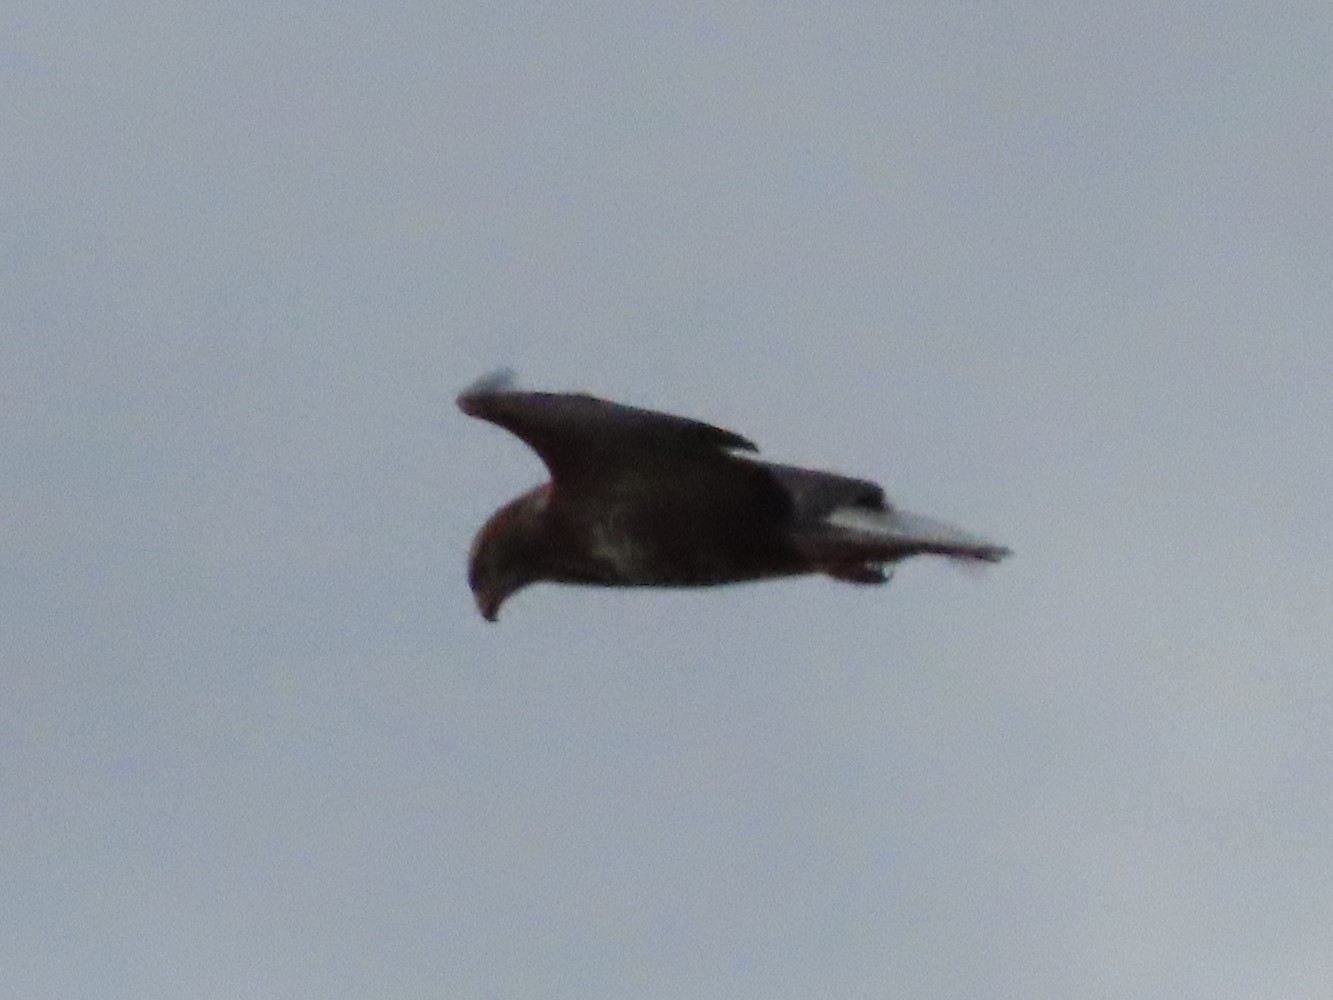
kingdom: Animalia
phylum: Chordata
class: Aves
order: Accipitriformes
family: Accipitridae
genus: Buteo
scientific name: Buteo buteo
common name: Musvåge
